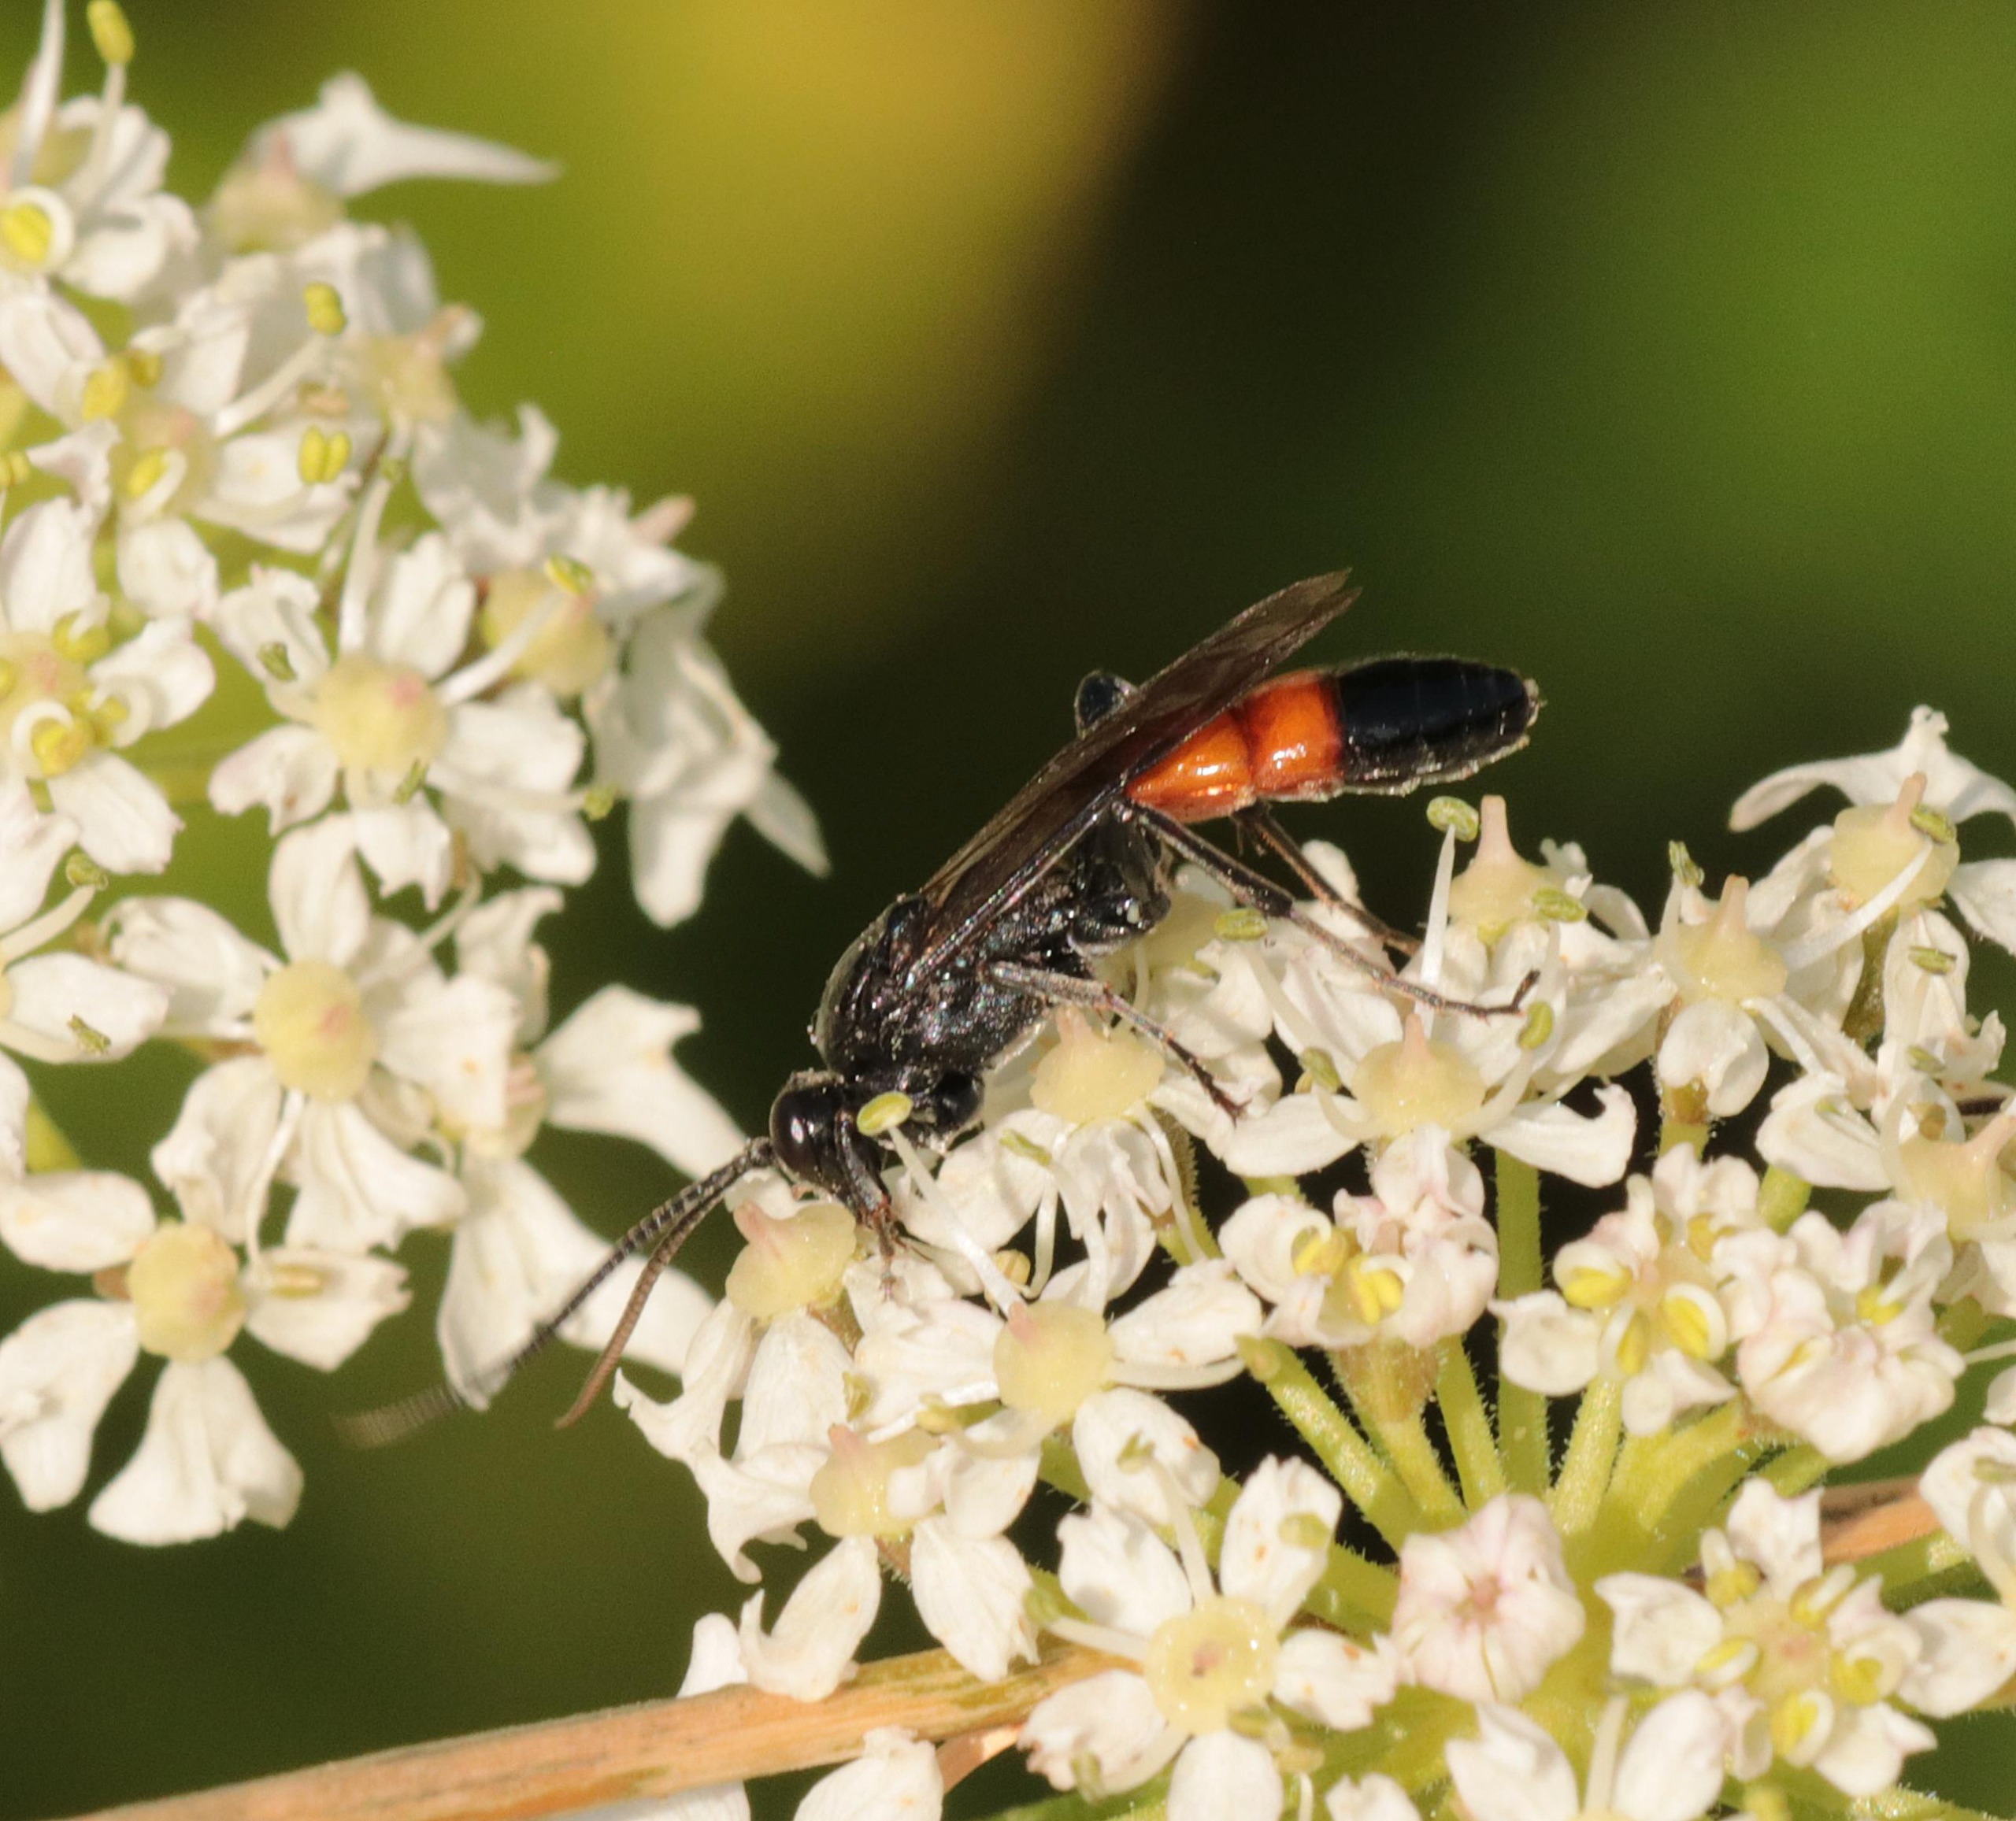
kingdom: Animalia
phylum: Arthropoda
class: Insecta
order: Hymenoptera
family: Ichneumonidae
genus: Ctenichneumon
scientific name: Ctenichneumon panzeri
